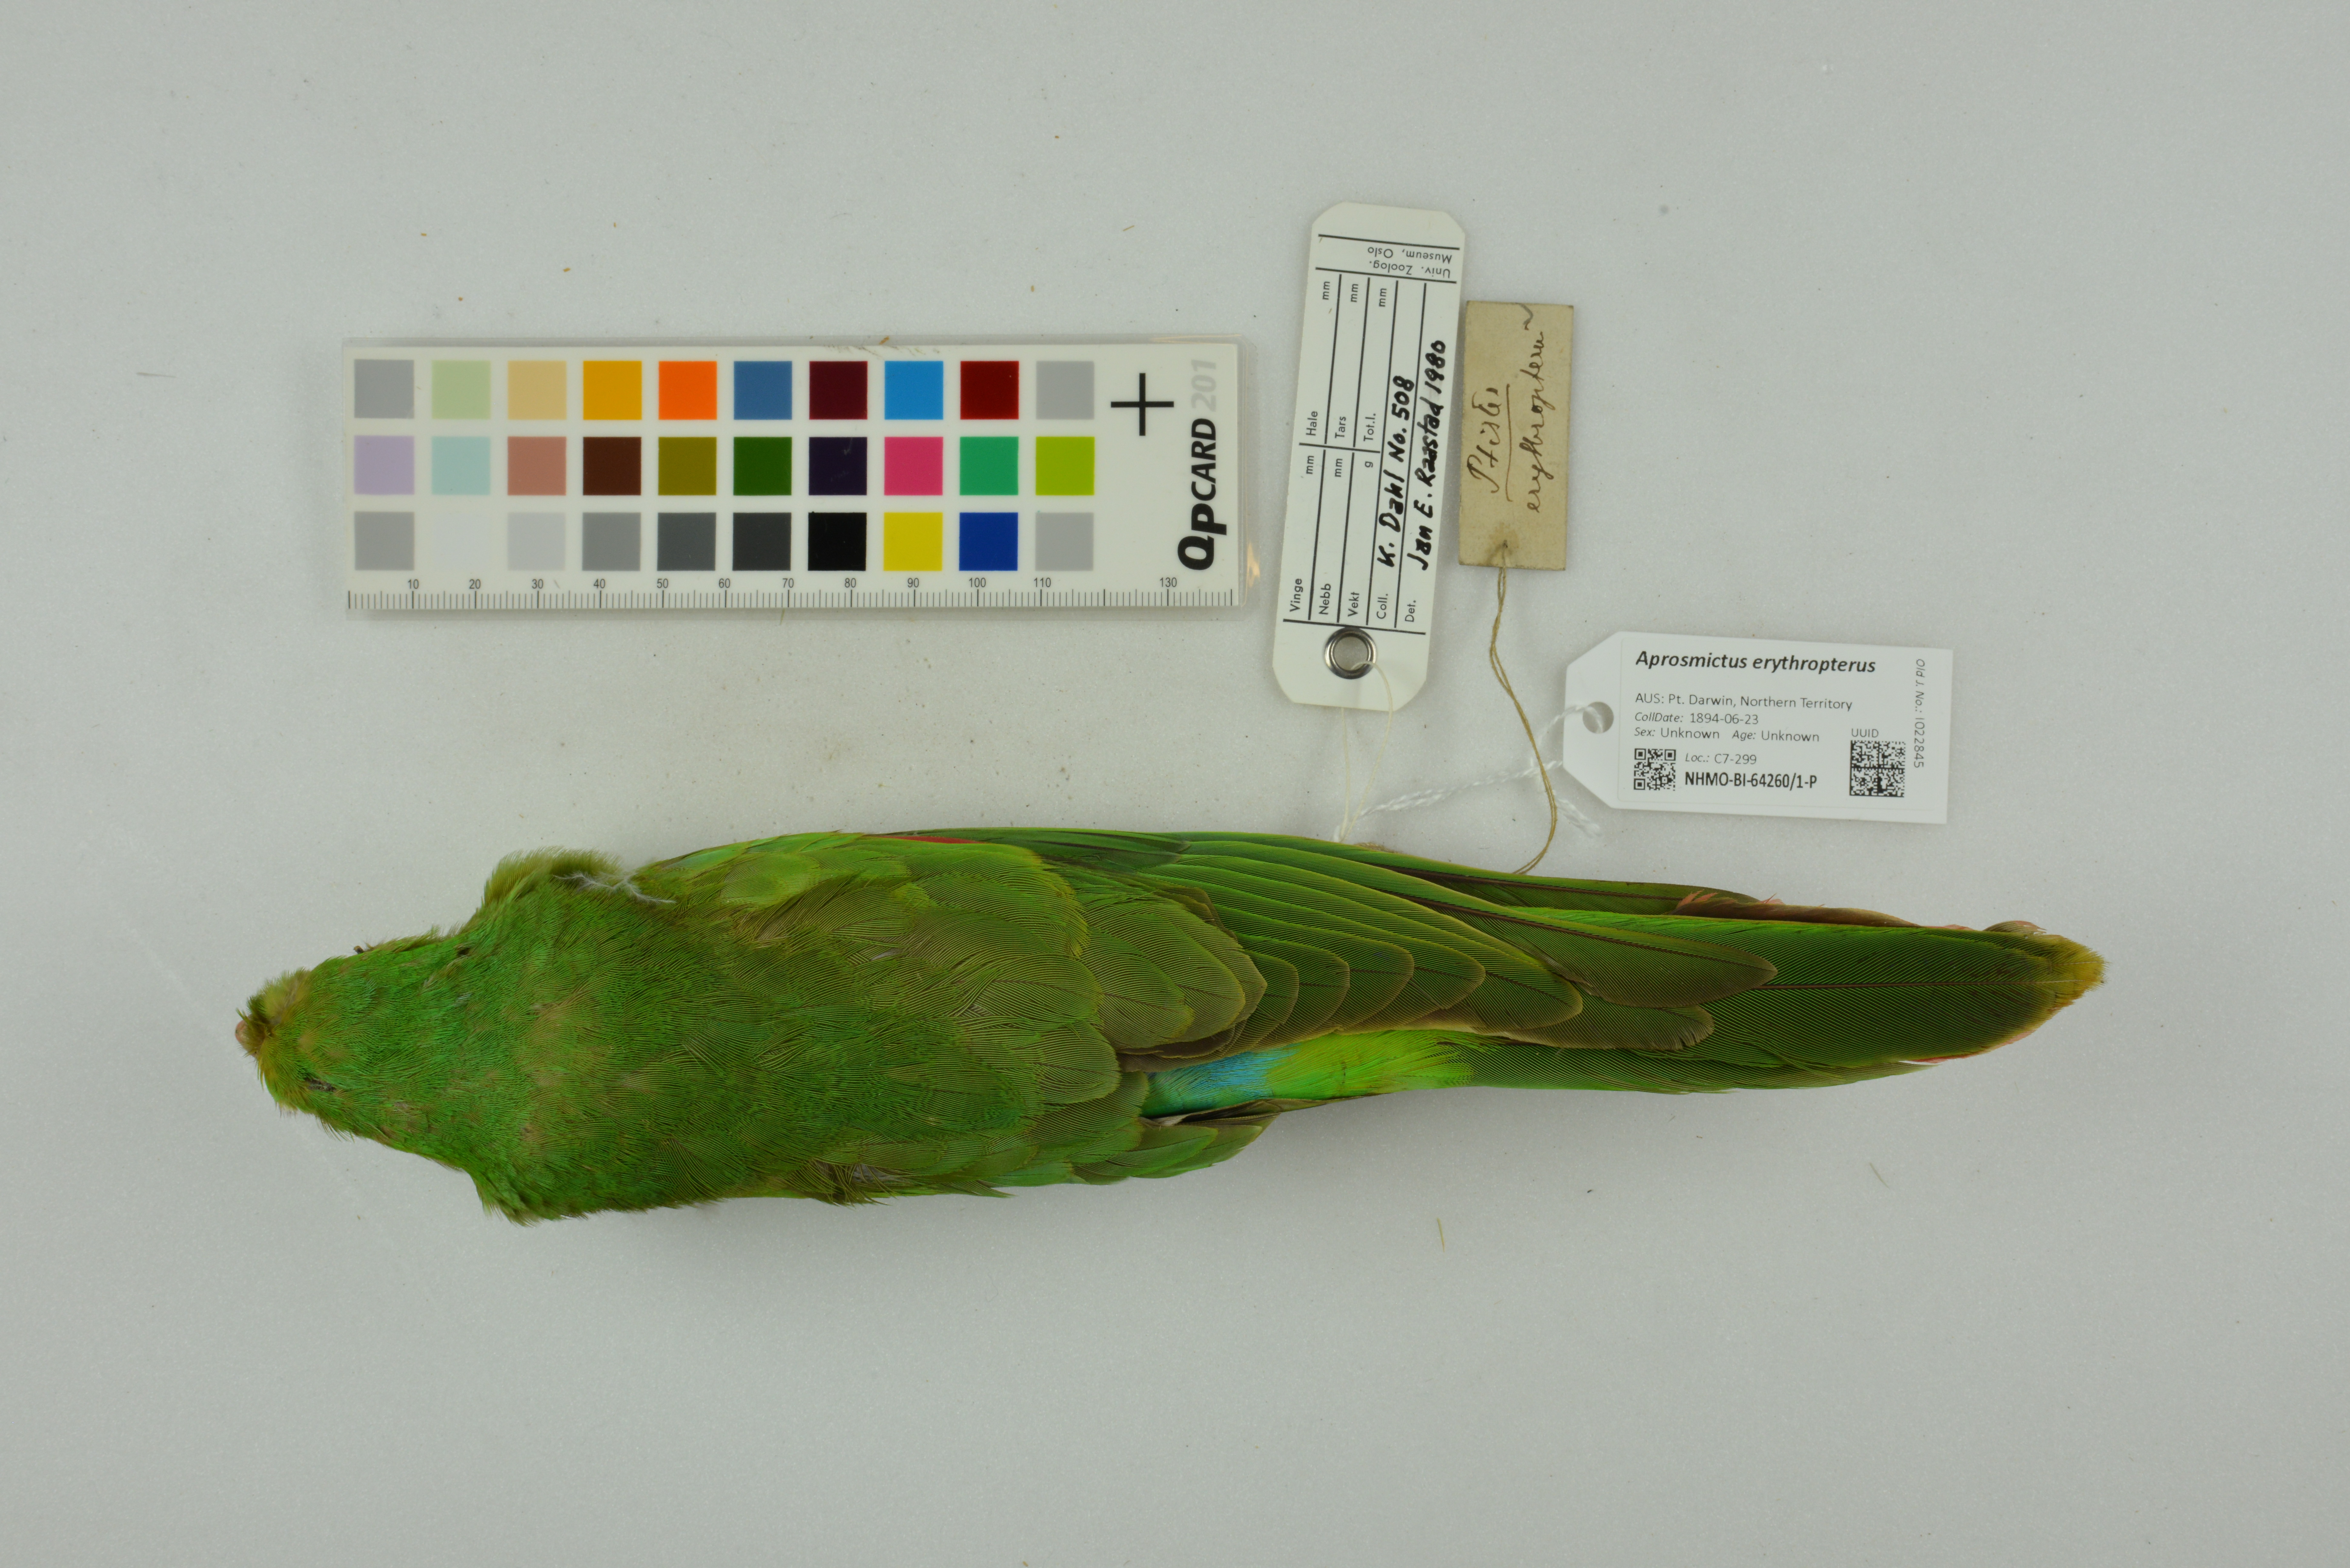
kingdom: Animalia
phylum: Chordata
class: Aves
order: Psittaciformes
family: Psittacidae
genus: Aprosmictus
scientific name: Aprosmictus erythropterus
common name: Red-winged parrot
